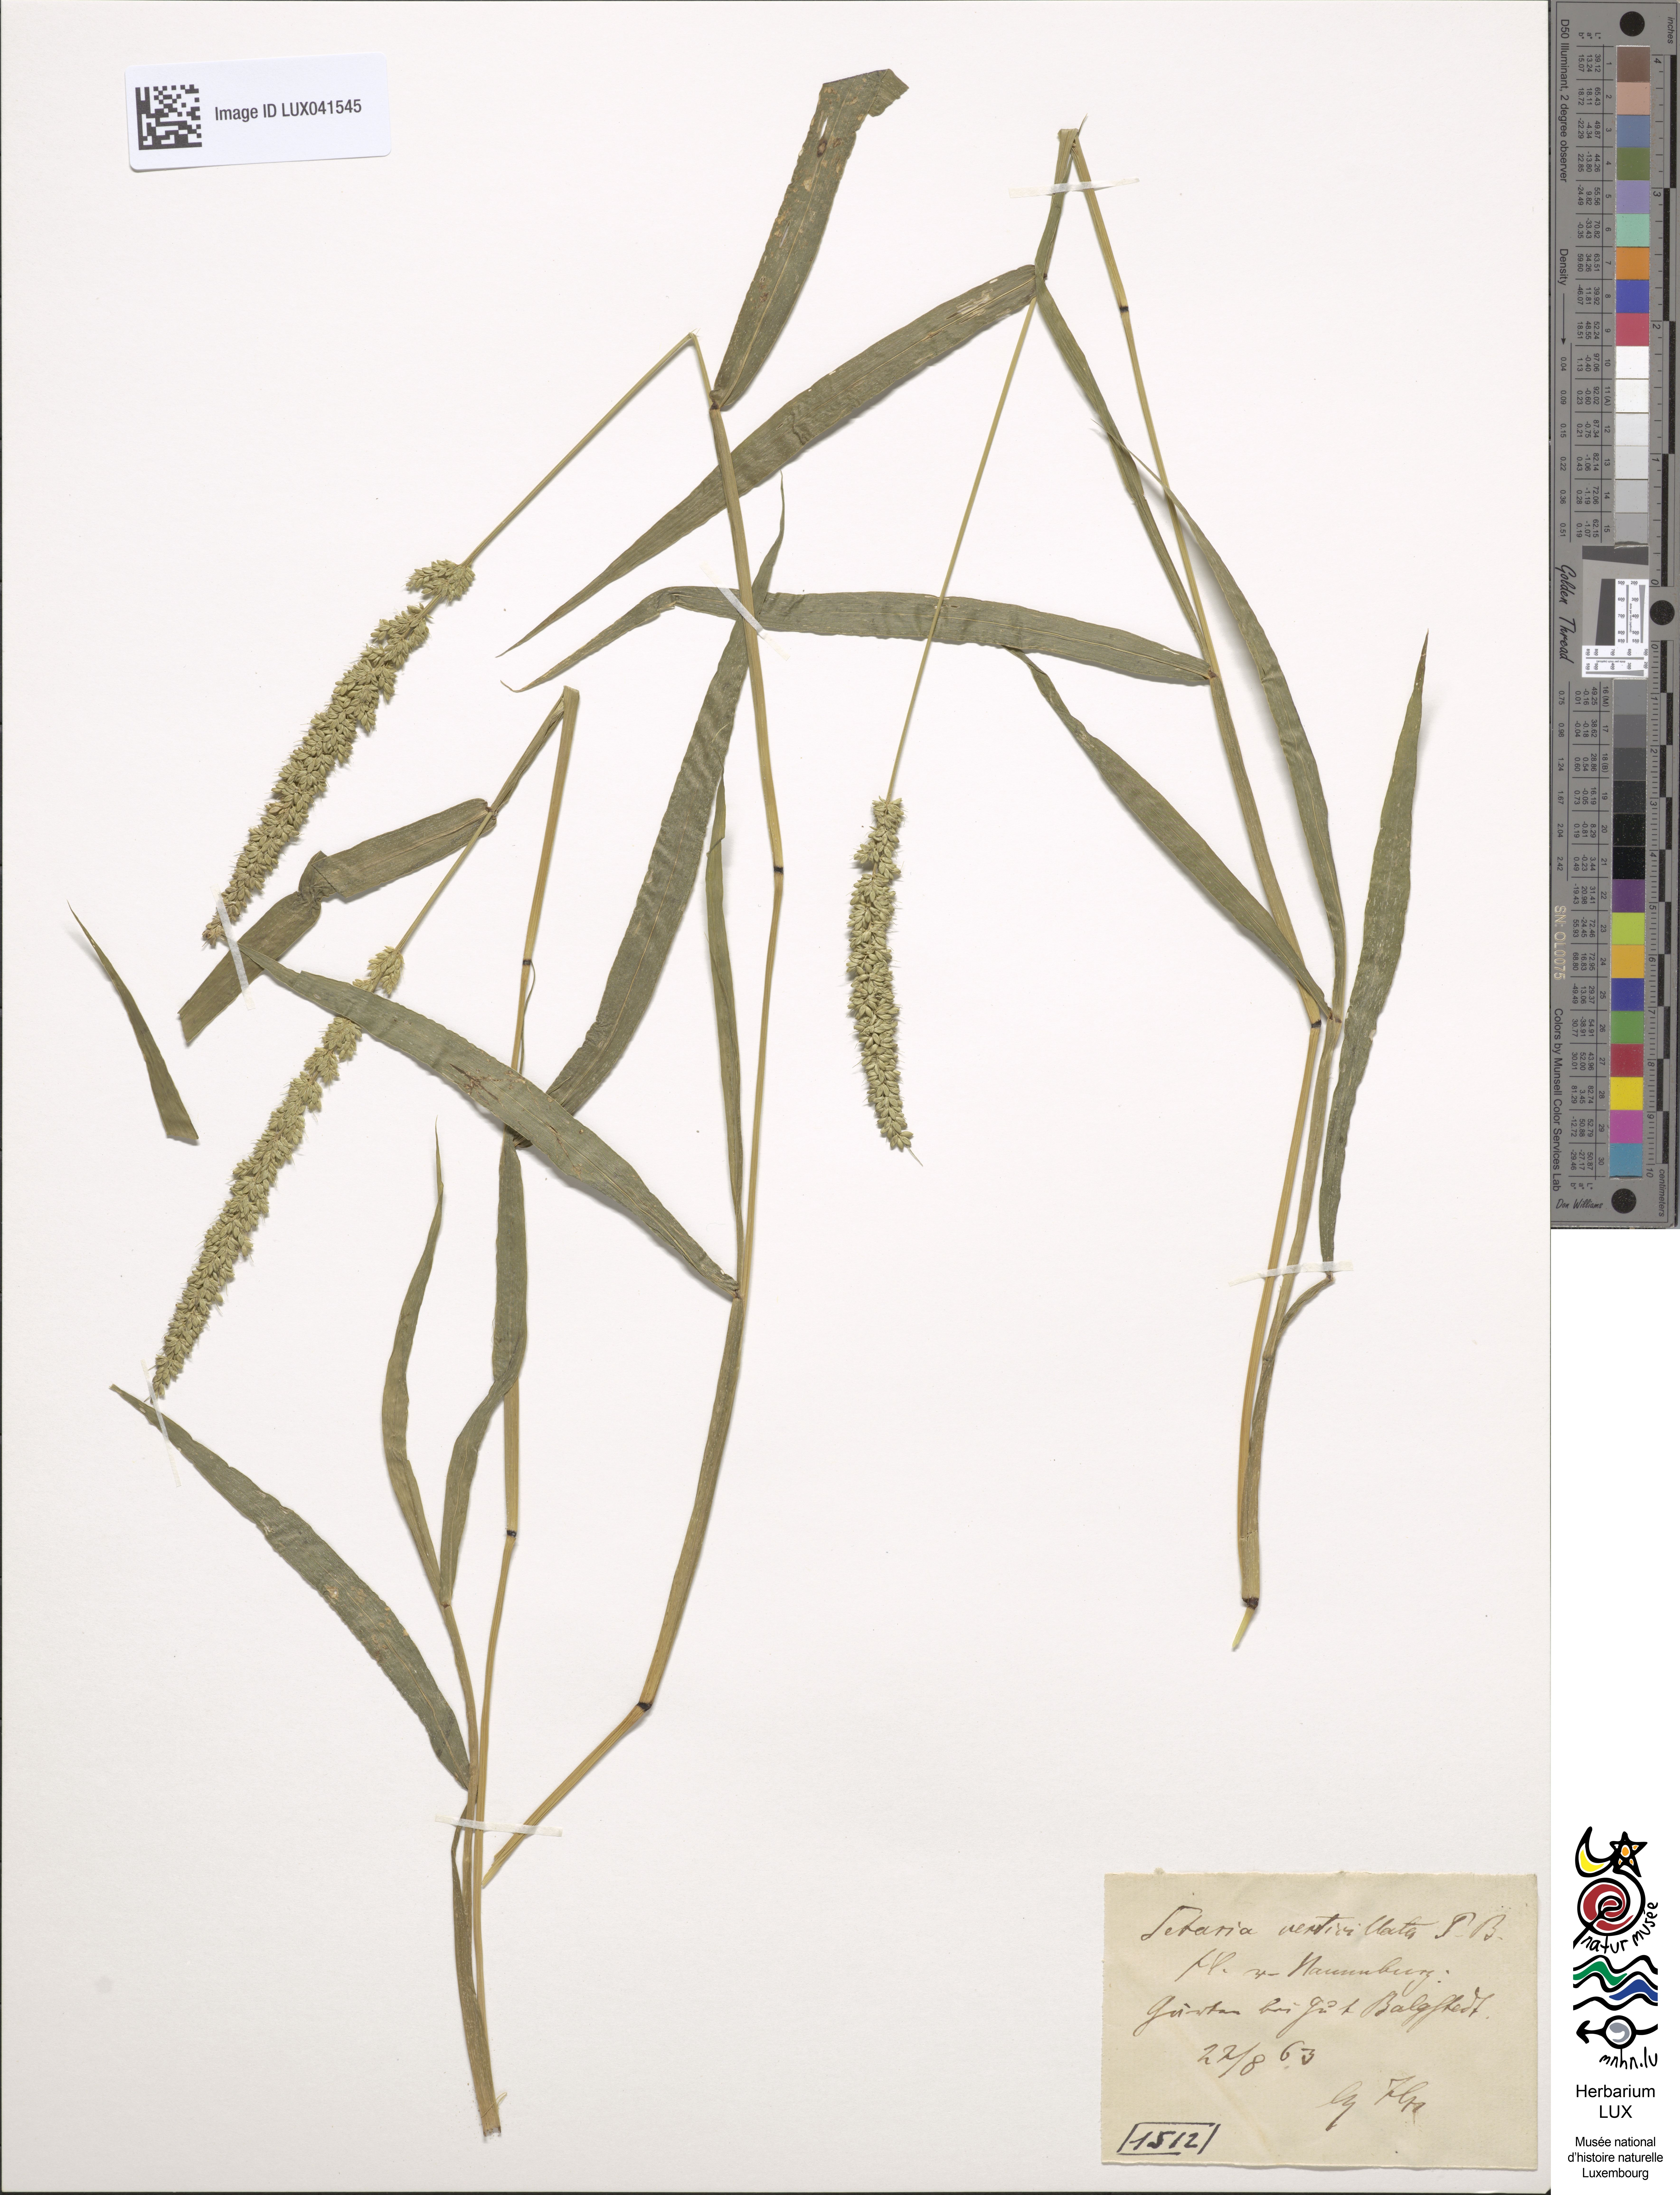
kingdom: Plantae
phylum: Tracheophyta
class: Liliopsida
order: Poales
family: Poaceae
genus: Setaria
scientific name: Setaria verticillata
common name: Hooked bristlegrass
